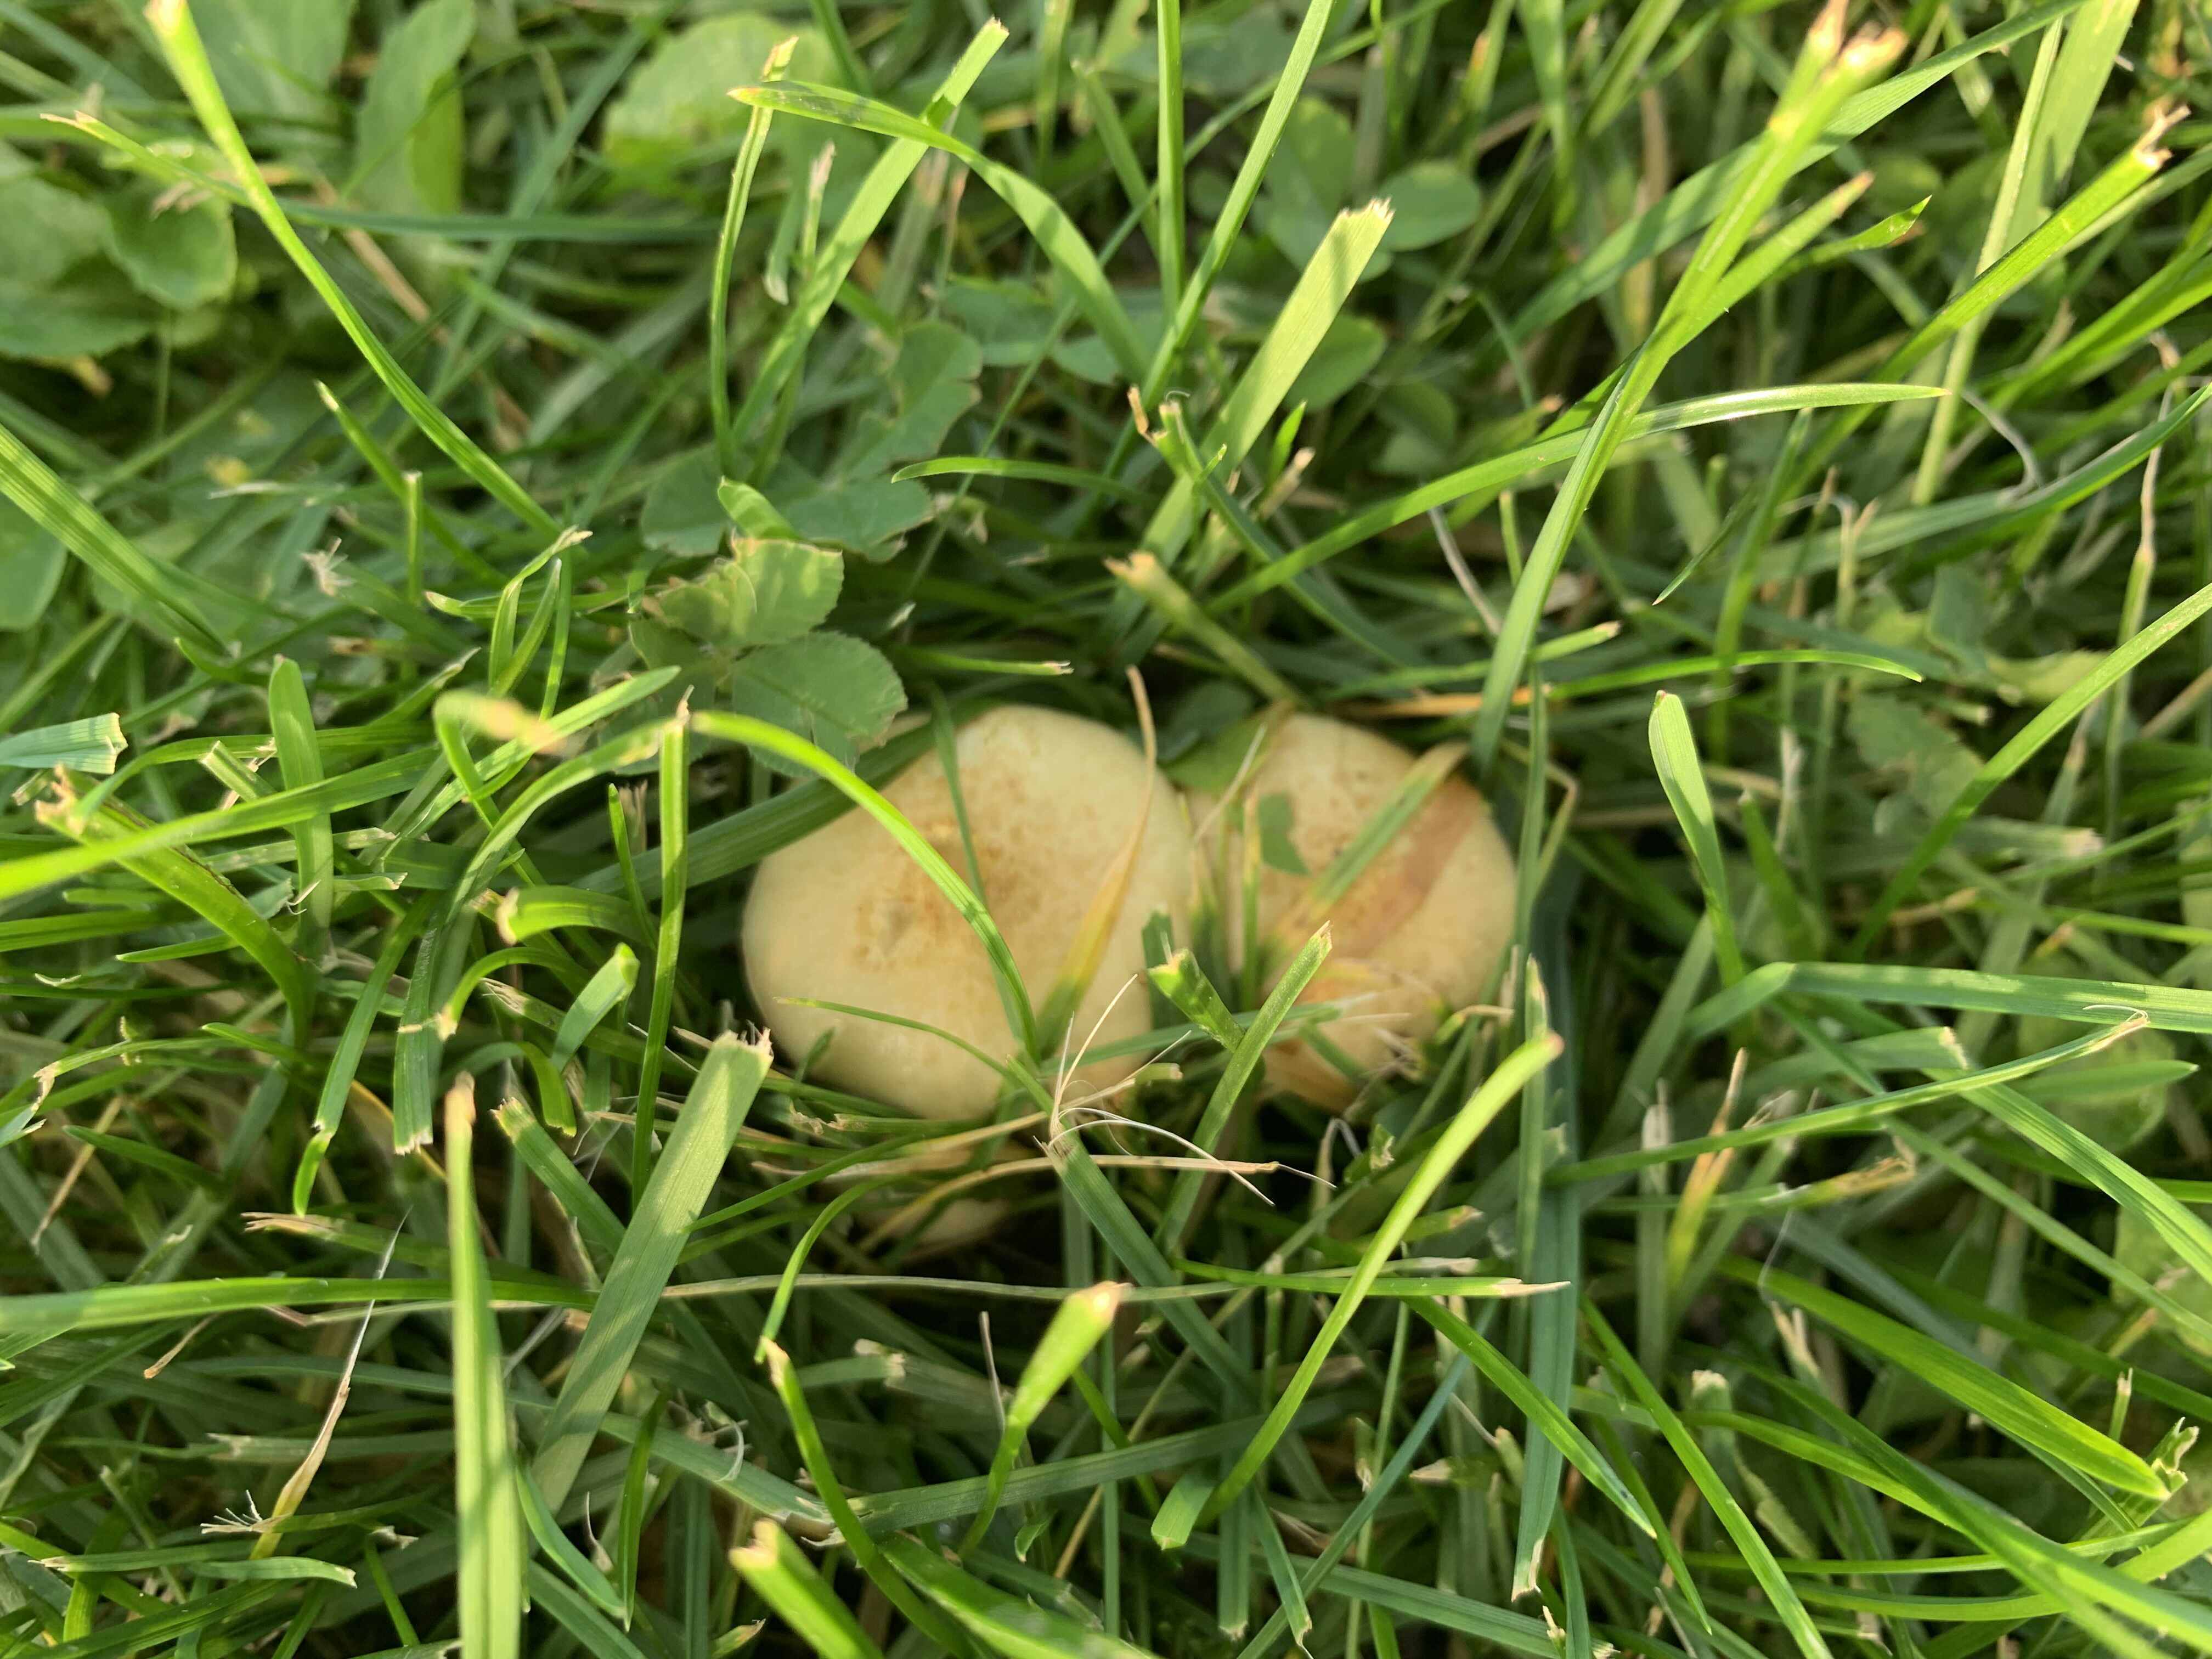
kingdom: Fungi
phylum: Basidiomycota
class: Agaricomycetes
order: Agaricales
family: Strophariaceae
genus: Hypholoma
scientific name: Hypholoma fasciculare
